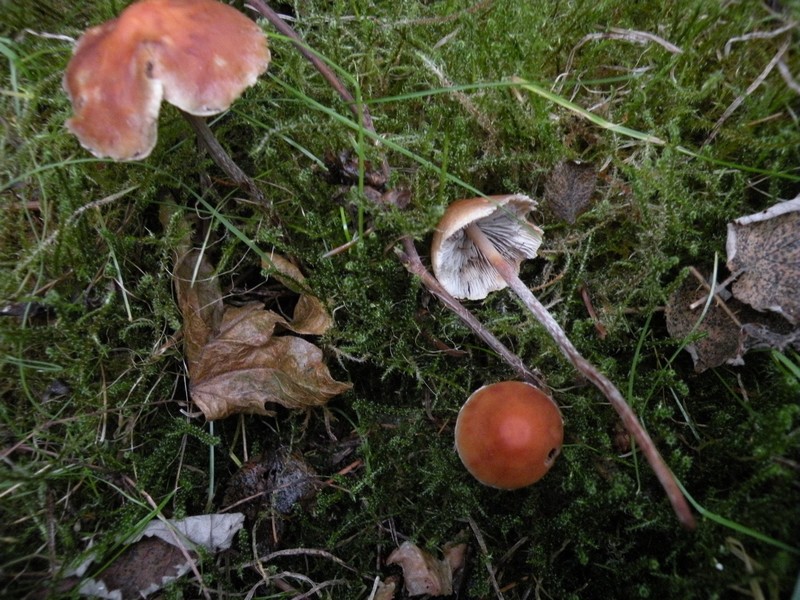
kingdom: Fungi
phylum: Basidiomycota
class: Agaricomycetes
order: Agaricales
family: Strophariaceae
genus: Hypholoma
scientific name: Hypholoma marginatum
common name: enlig svovlhat
